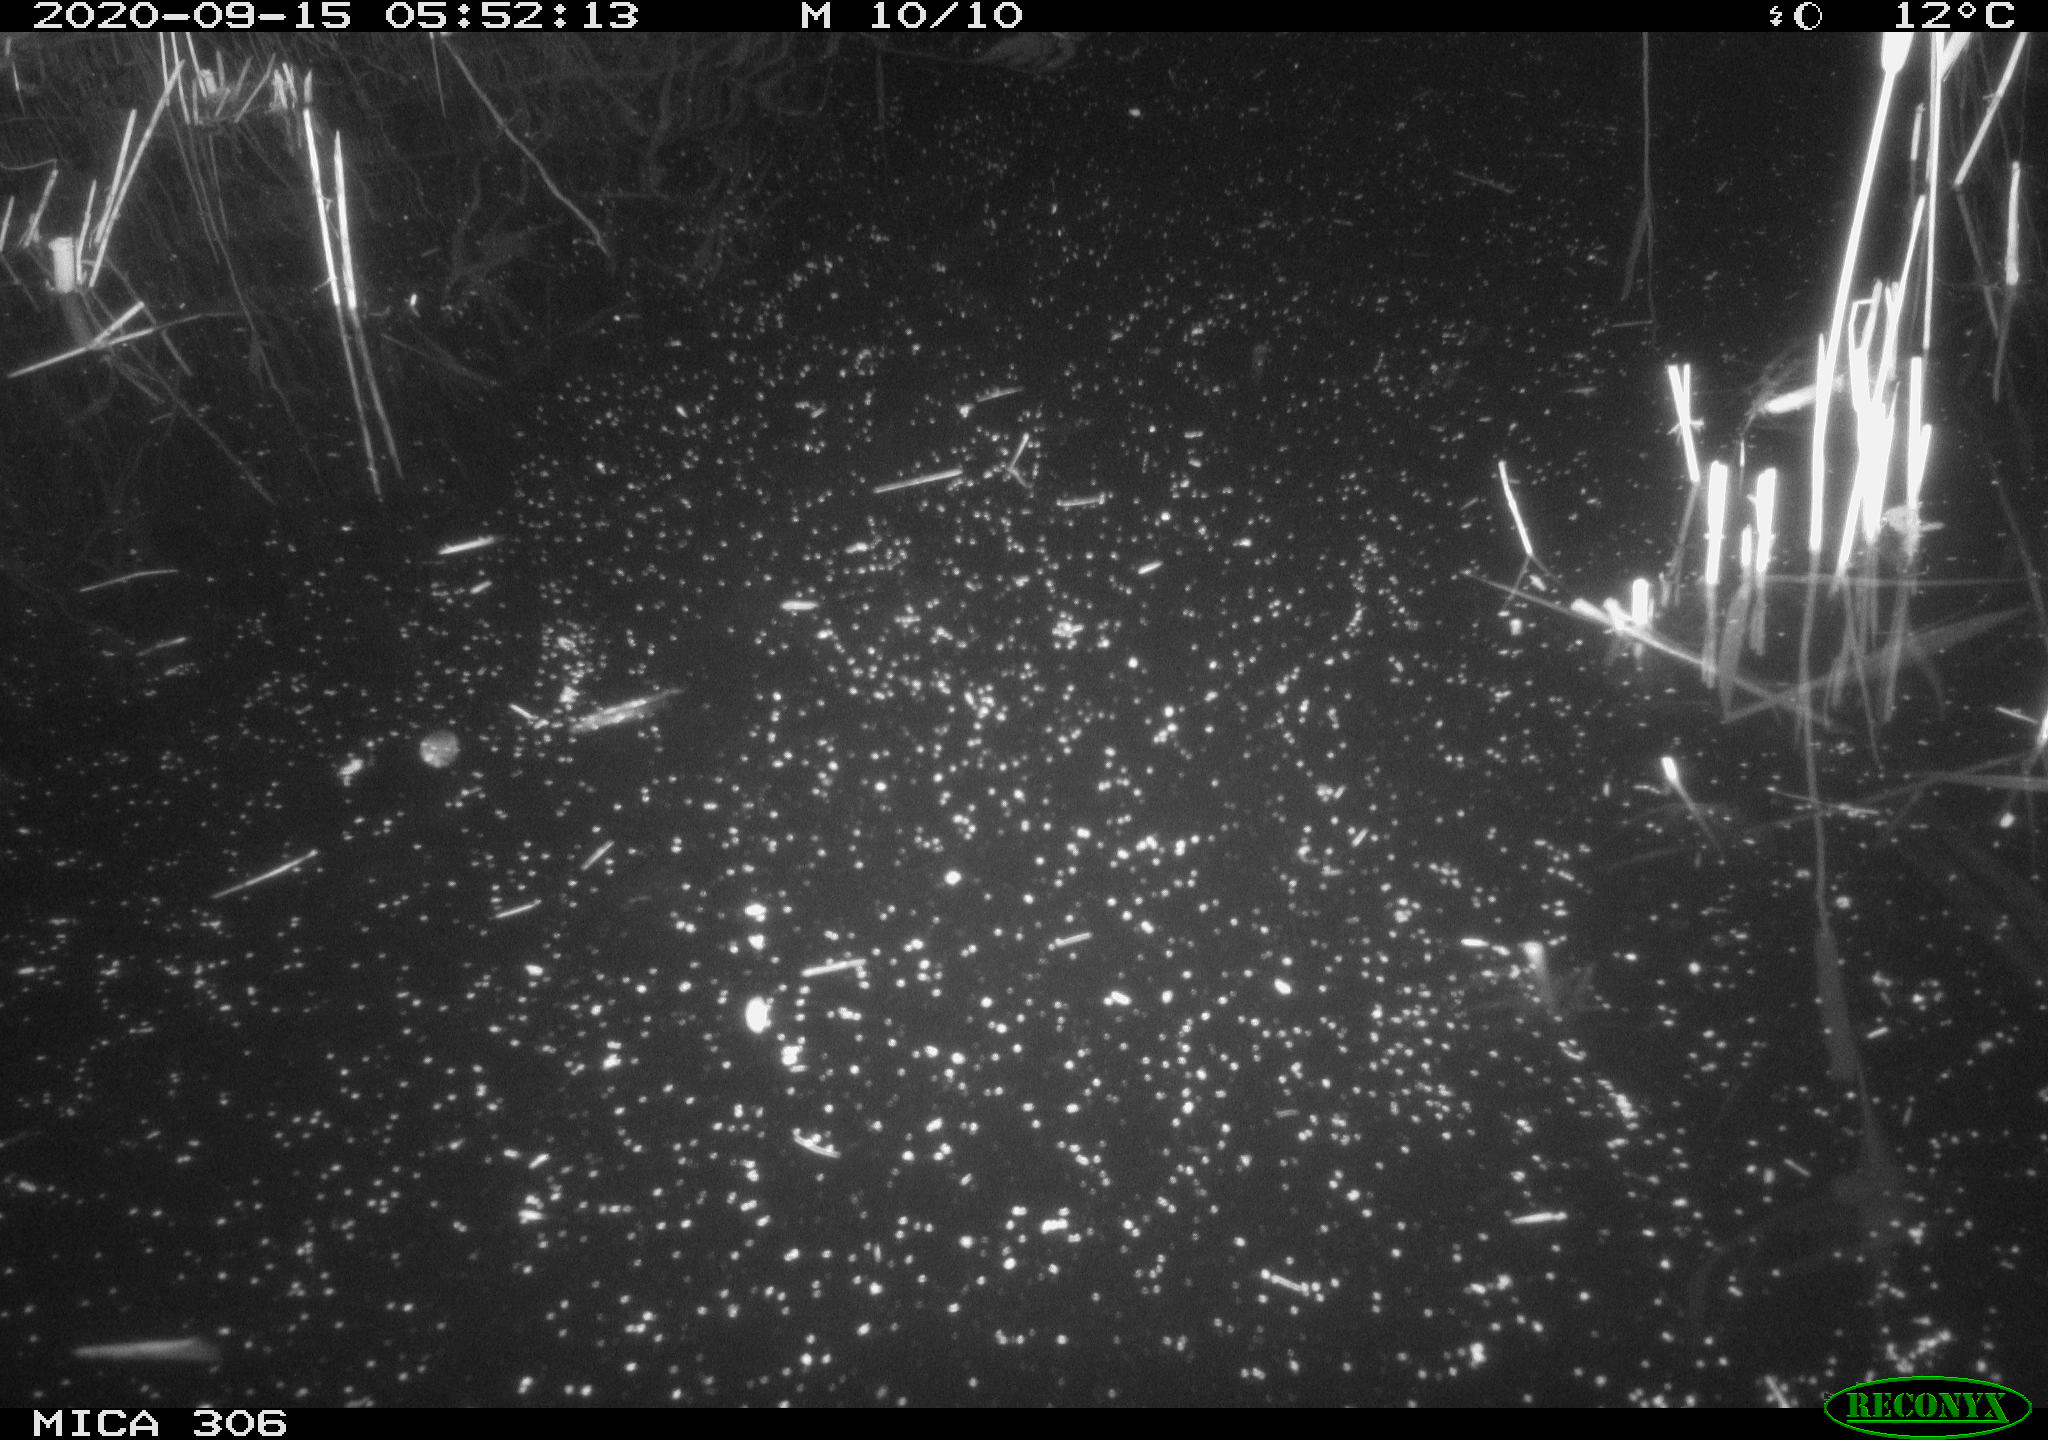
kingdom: Animalia
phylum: Chordata
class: Mammalia
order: Rodentia
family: Cricetidae
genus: Ondatra
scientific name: Ondatra zibethicus
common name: Muskrat
